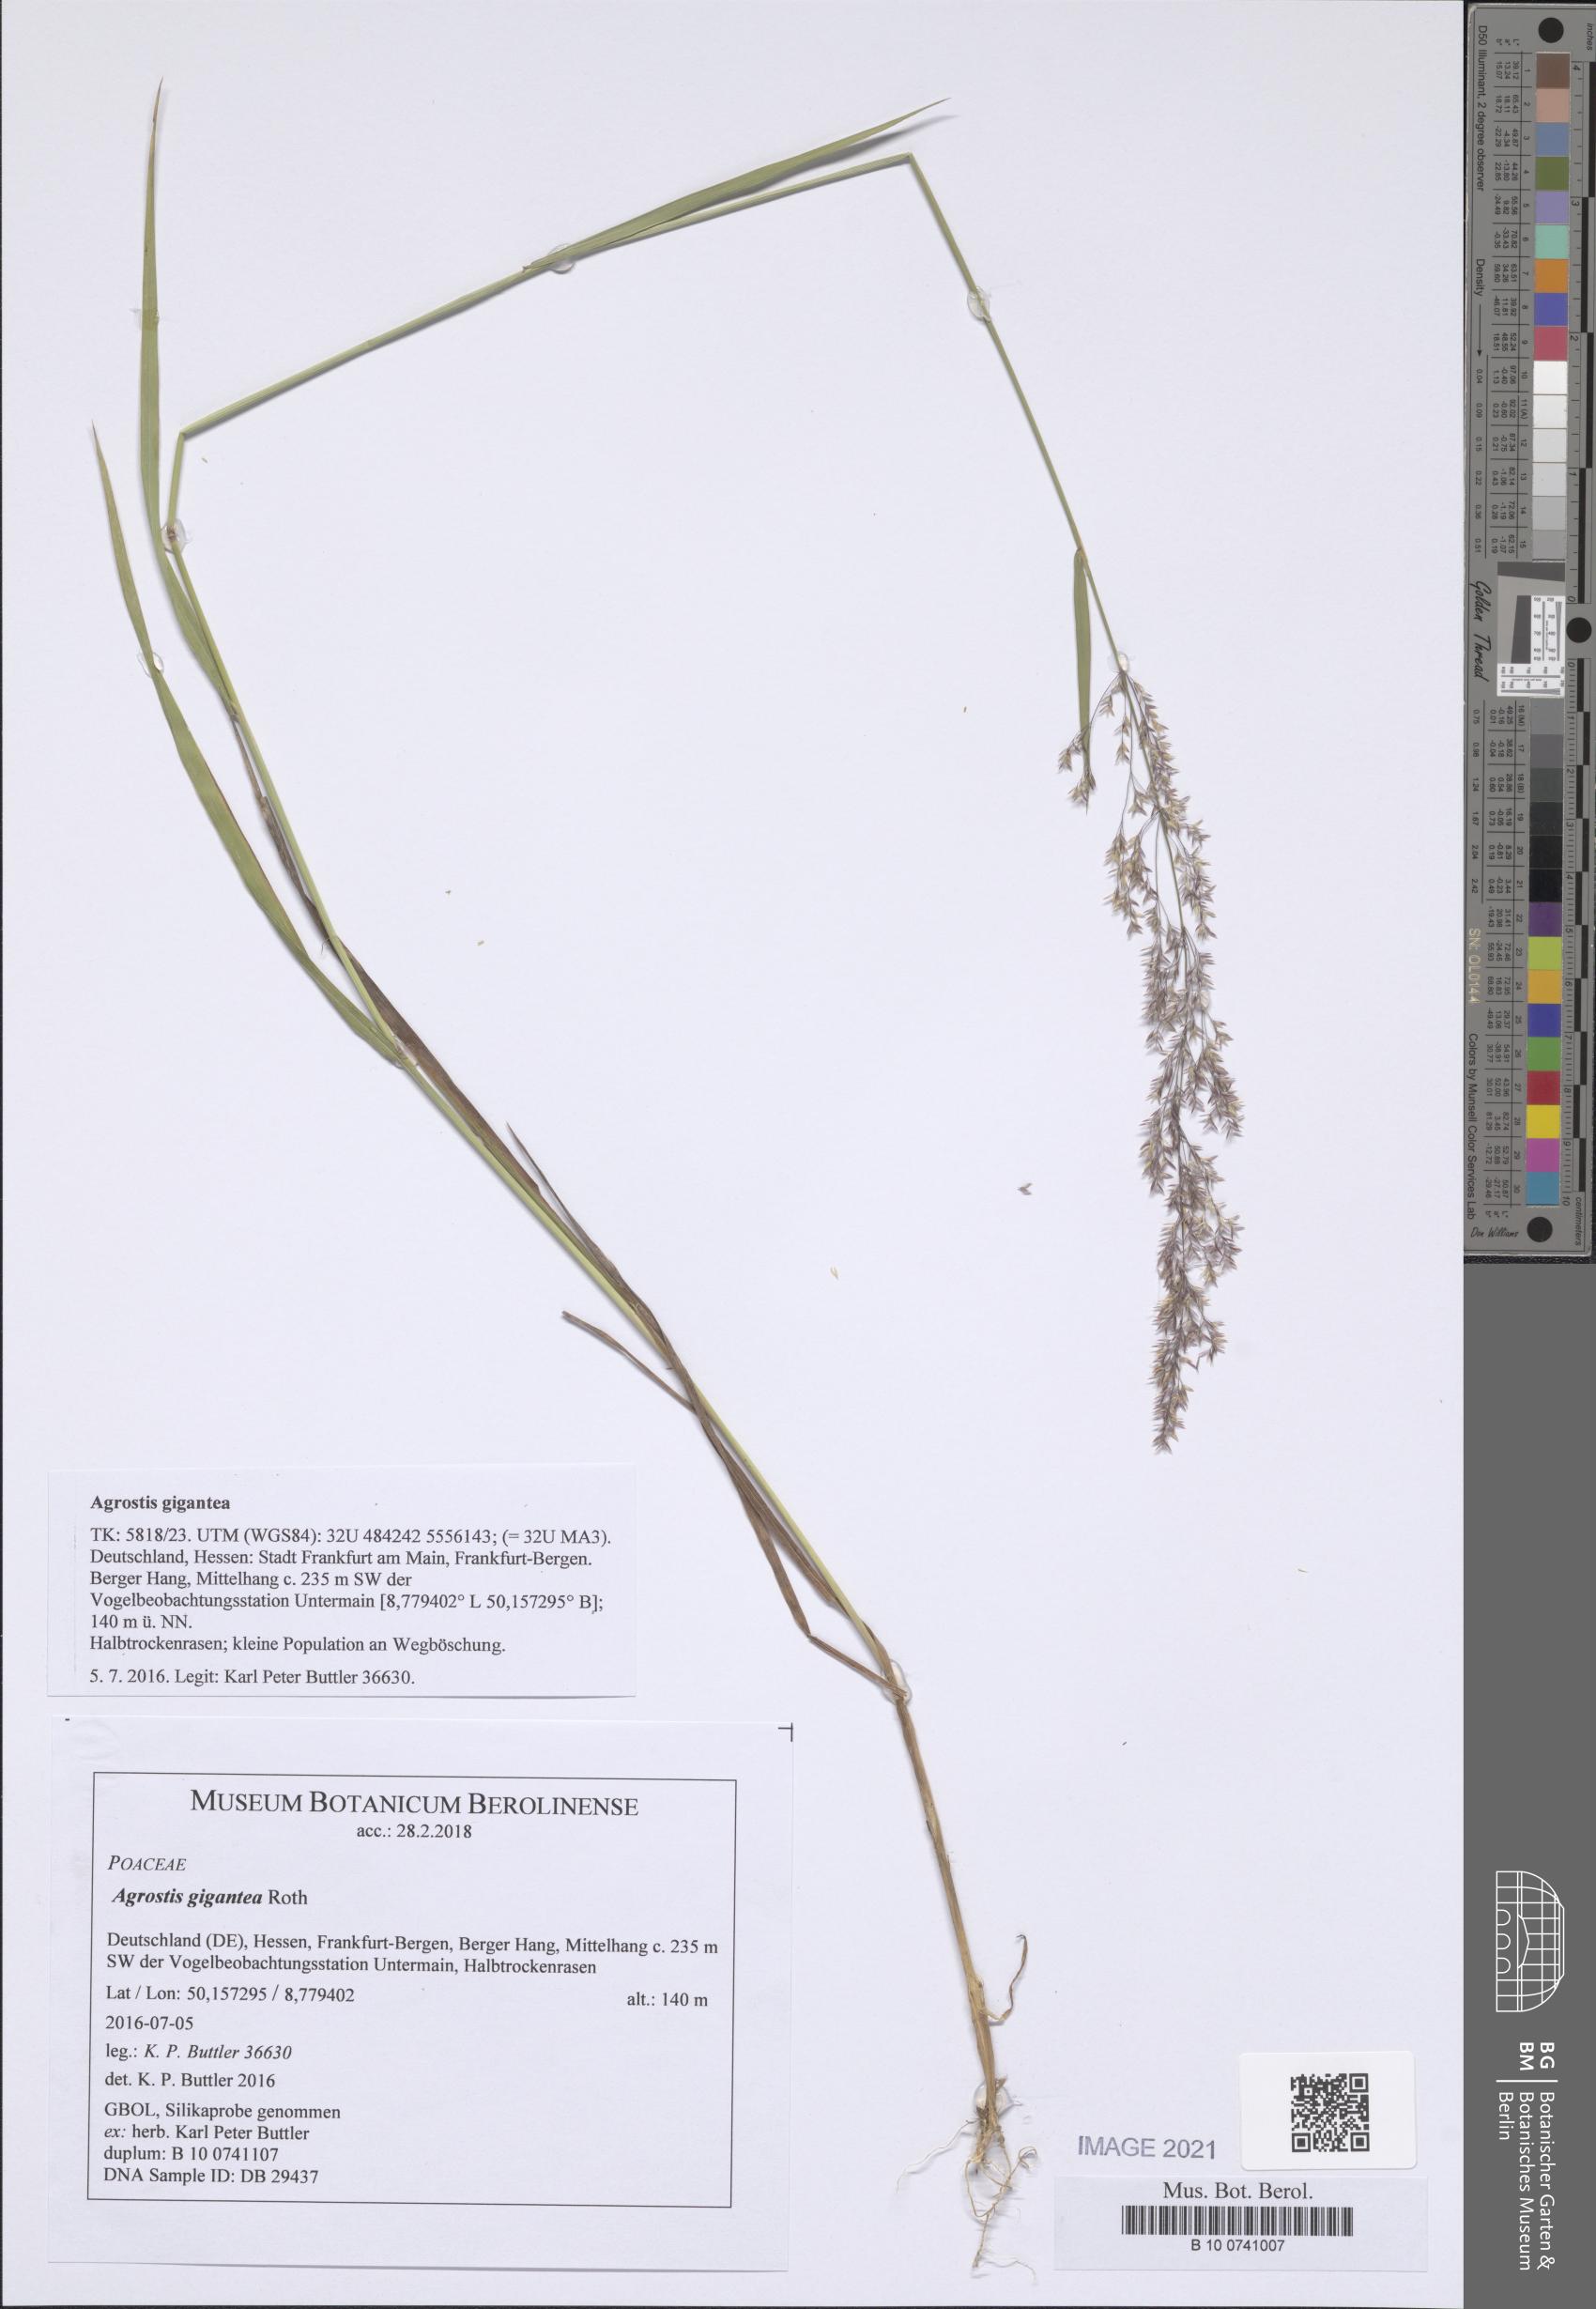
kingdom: Plantae
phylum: Tracheophyta
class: Liliopsida
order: Poales
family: Poaceae
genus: Agrostis
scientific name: Agrostis gigantea
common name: Black bent
